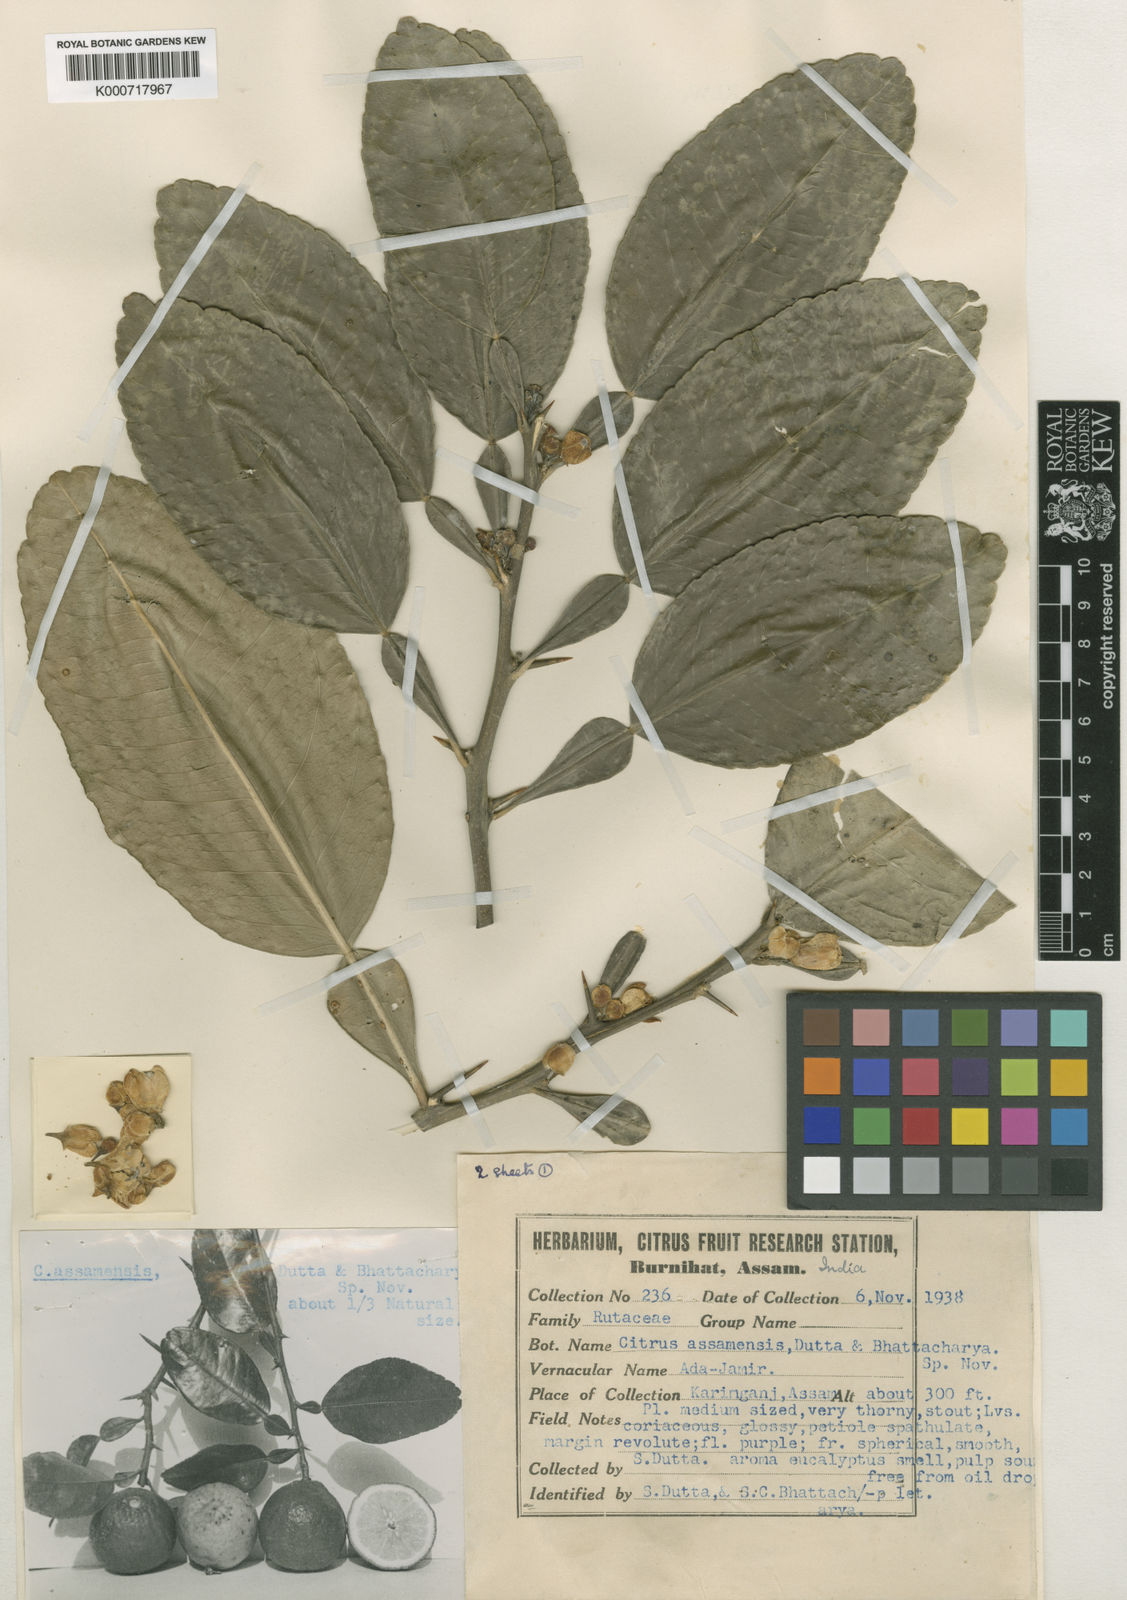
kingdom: Plantae
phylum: Tracheophyta
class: Magnoliopsida
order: Sapindales
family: Rutaceae
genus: Citrus
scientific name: Citrus assamensis
